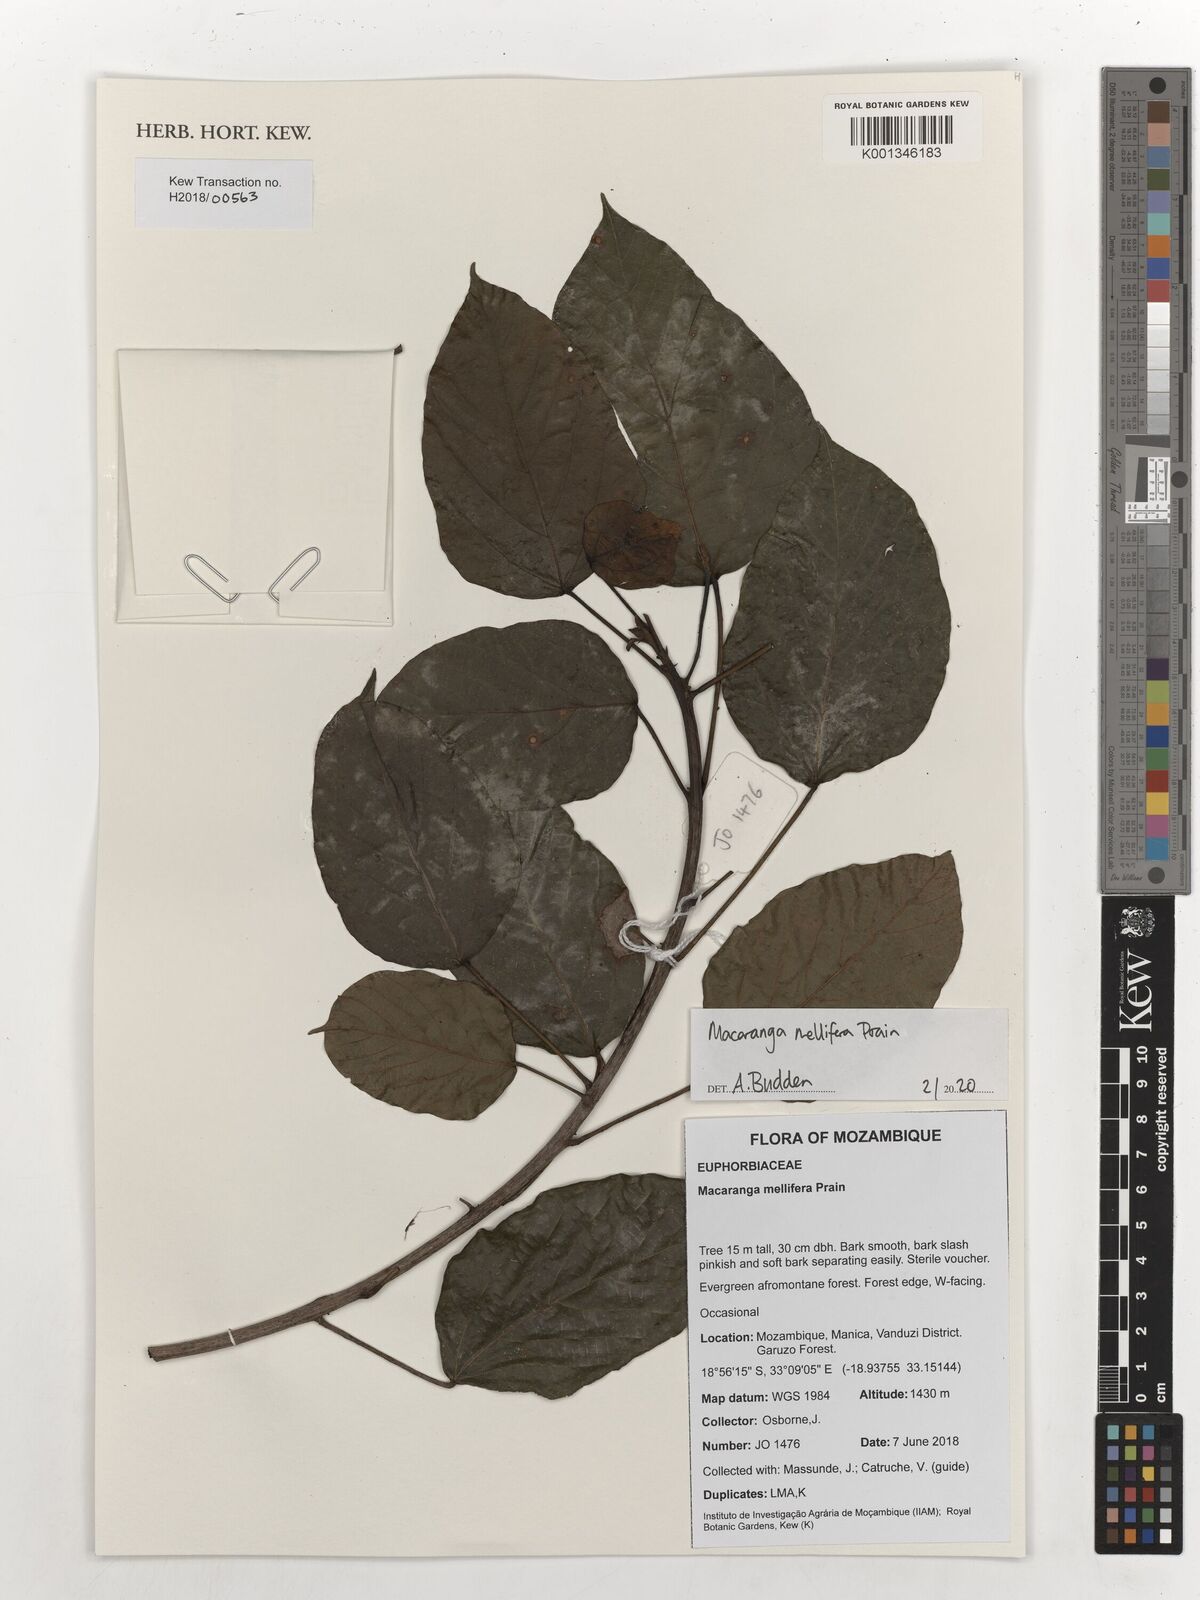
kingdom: Plantae
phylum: Tracheophyta
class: Magnoliopsida
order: Malpighiales
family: Euphorbiaceae
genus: Macaranga
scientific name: Macaranga mellifera
